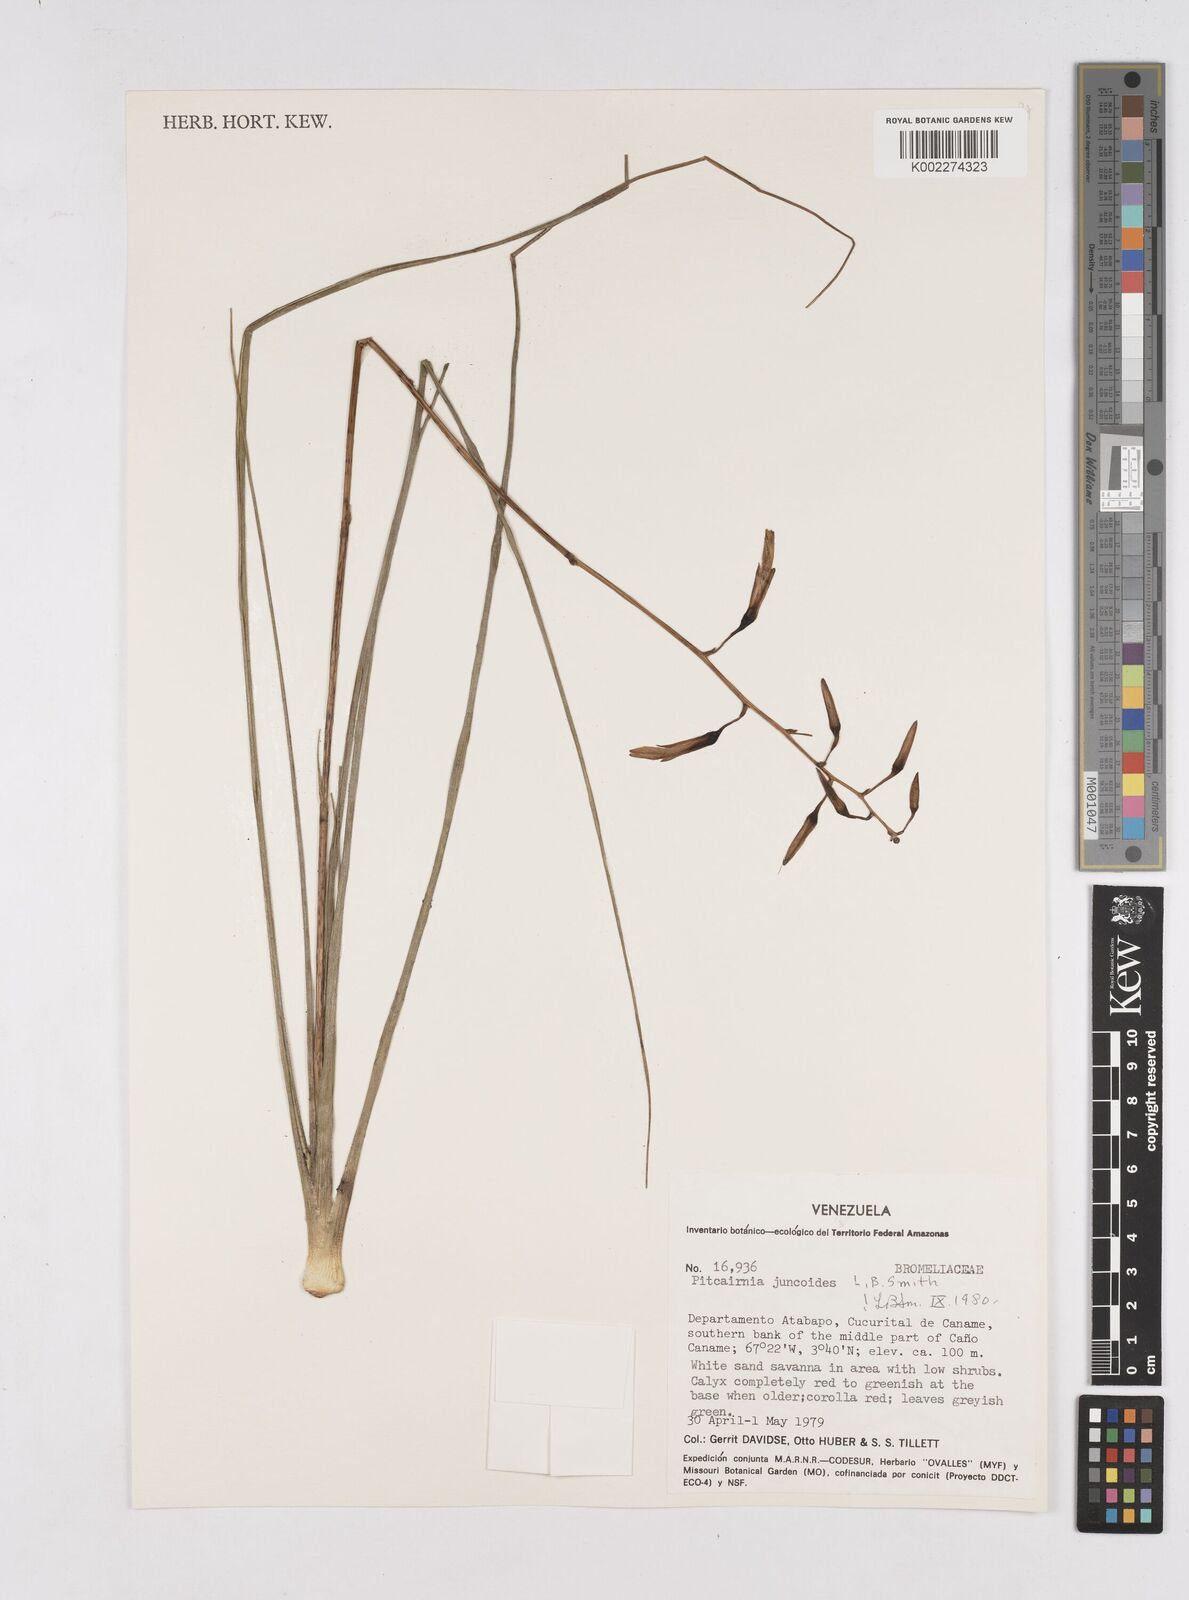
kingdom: Plantae
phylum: Tracheophyta
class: Liliopsida
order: Poales
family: Bromeliaceae
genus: Pitcairnia
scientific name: Pitcairnia juncoides
